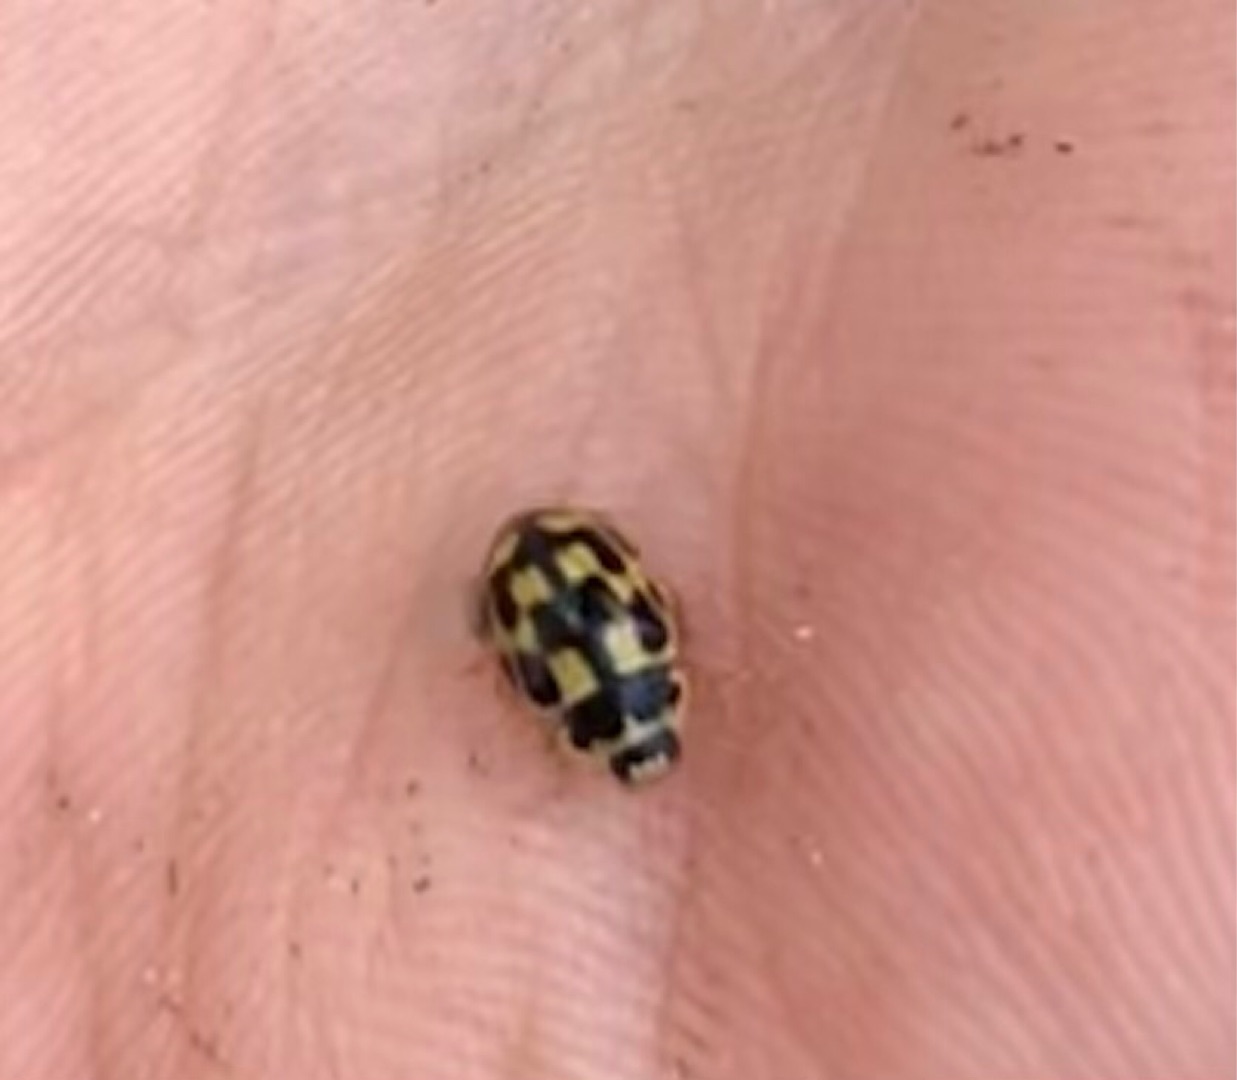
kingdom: Animalia
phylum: Arthropoda
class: Insecta
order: Coleoptera
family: Coccinellidae
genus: Propylaea
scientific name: Propylaea quatuordecimpunctata
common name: Skakbræt
